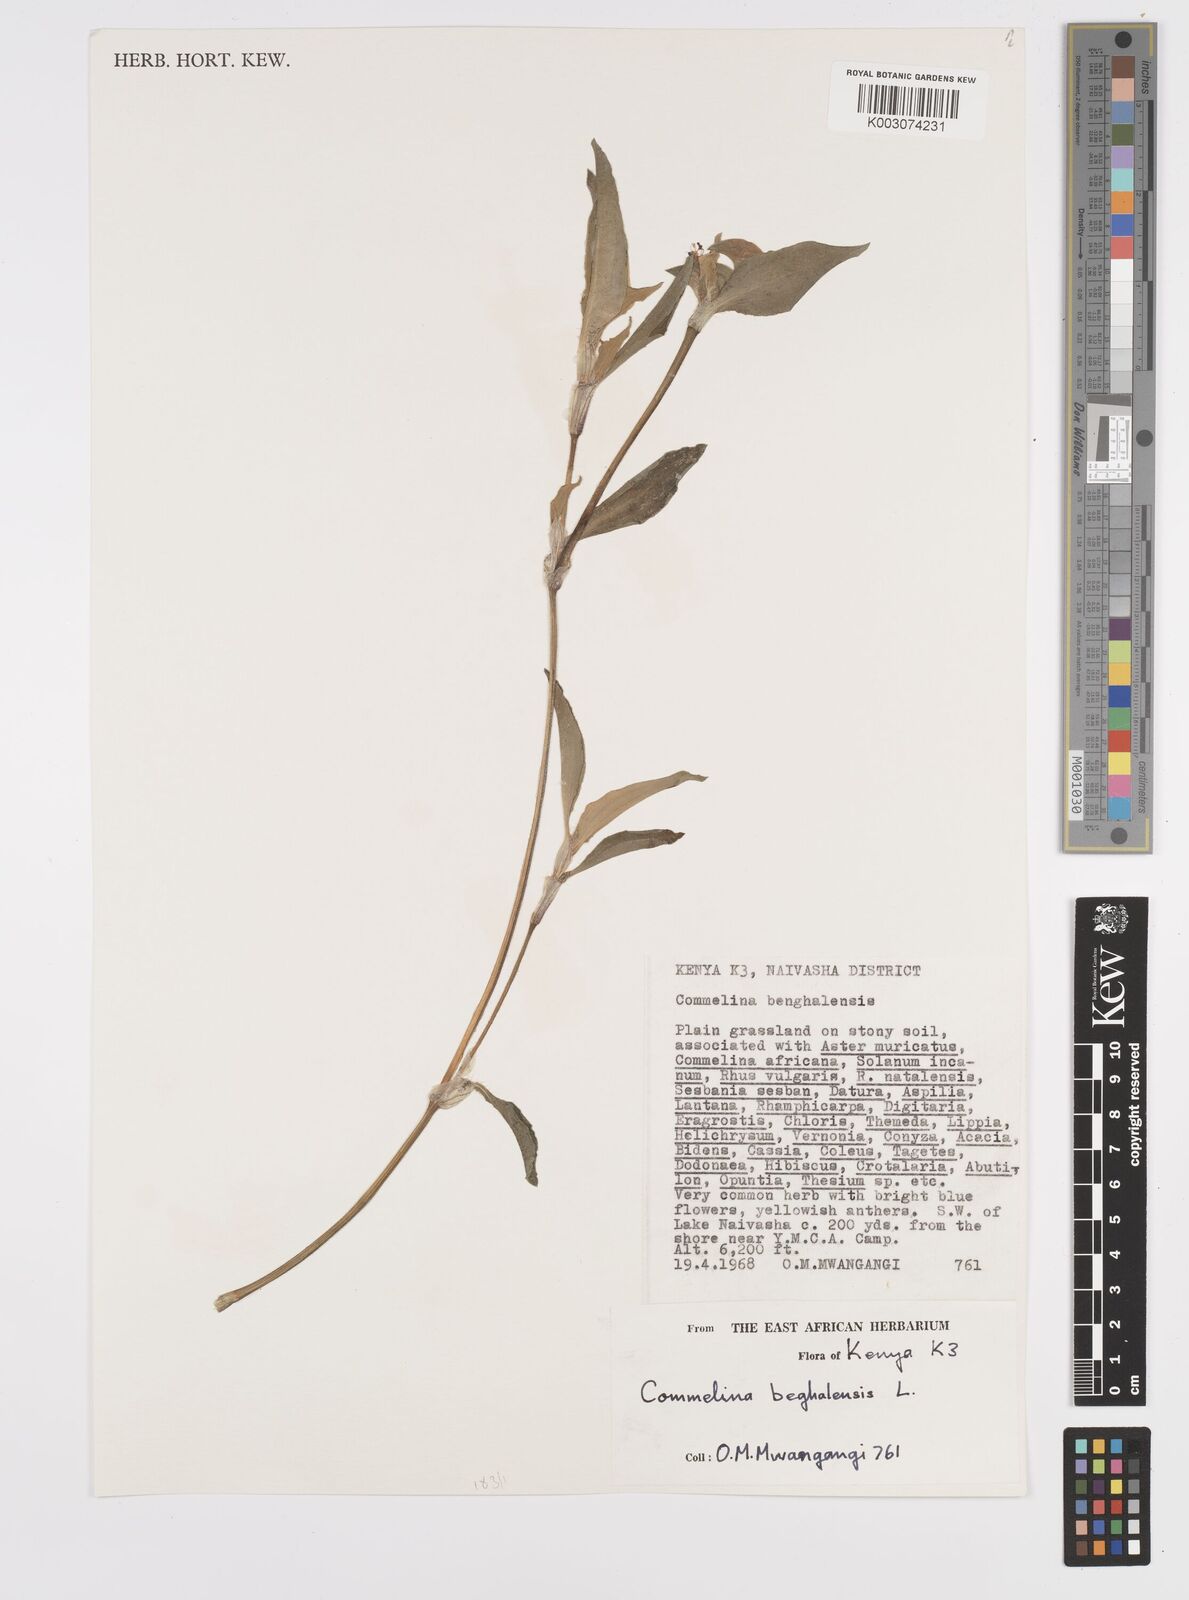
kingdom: Plantae
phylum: Tracheophyta
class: Liliopsida
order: Commelinales
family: Commelinaceae
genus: Commelina
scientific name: Commelina benghalensis
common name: Jio
